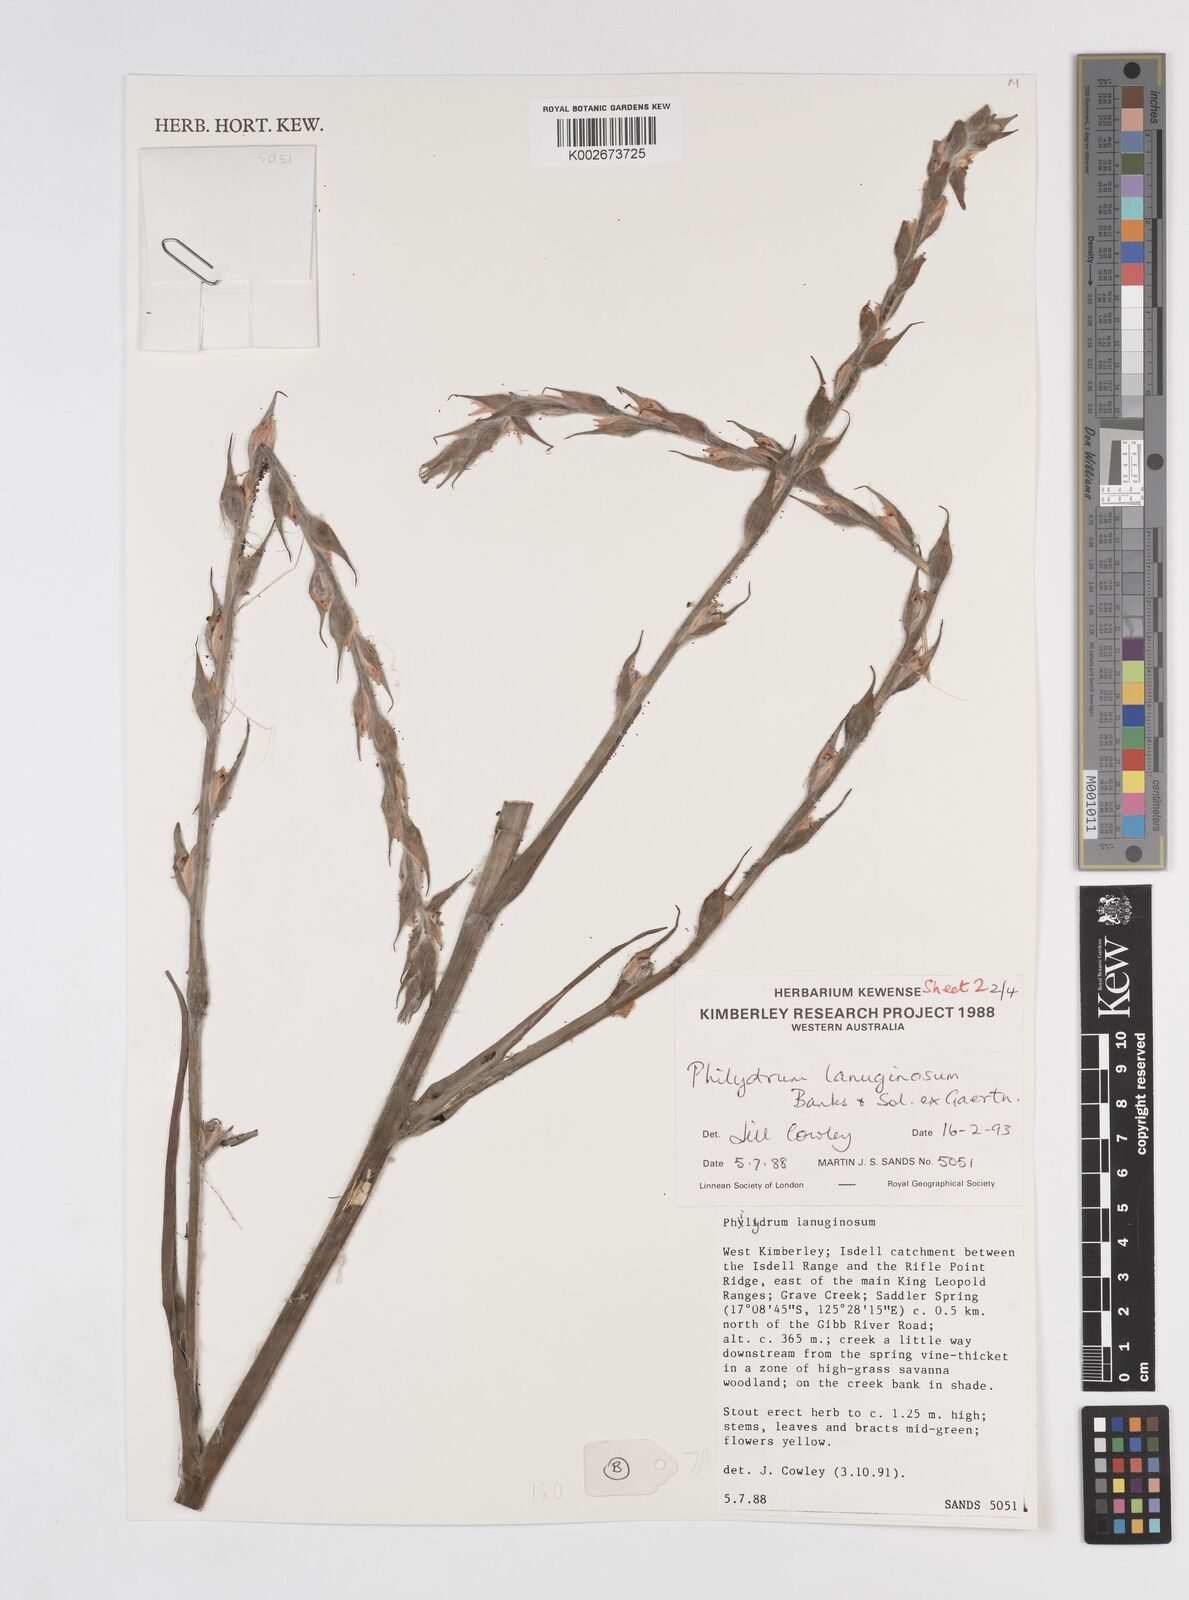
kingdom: Plantae
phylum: Tracheophyta
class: Liliopsida
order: Commelinales
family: Philydraceae
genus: Philydrum
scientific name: Philydrum lanuginosum
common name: Woolly frog's mouth
